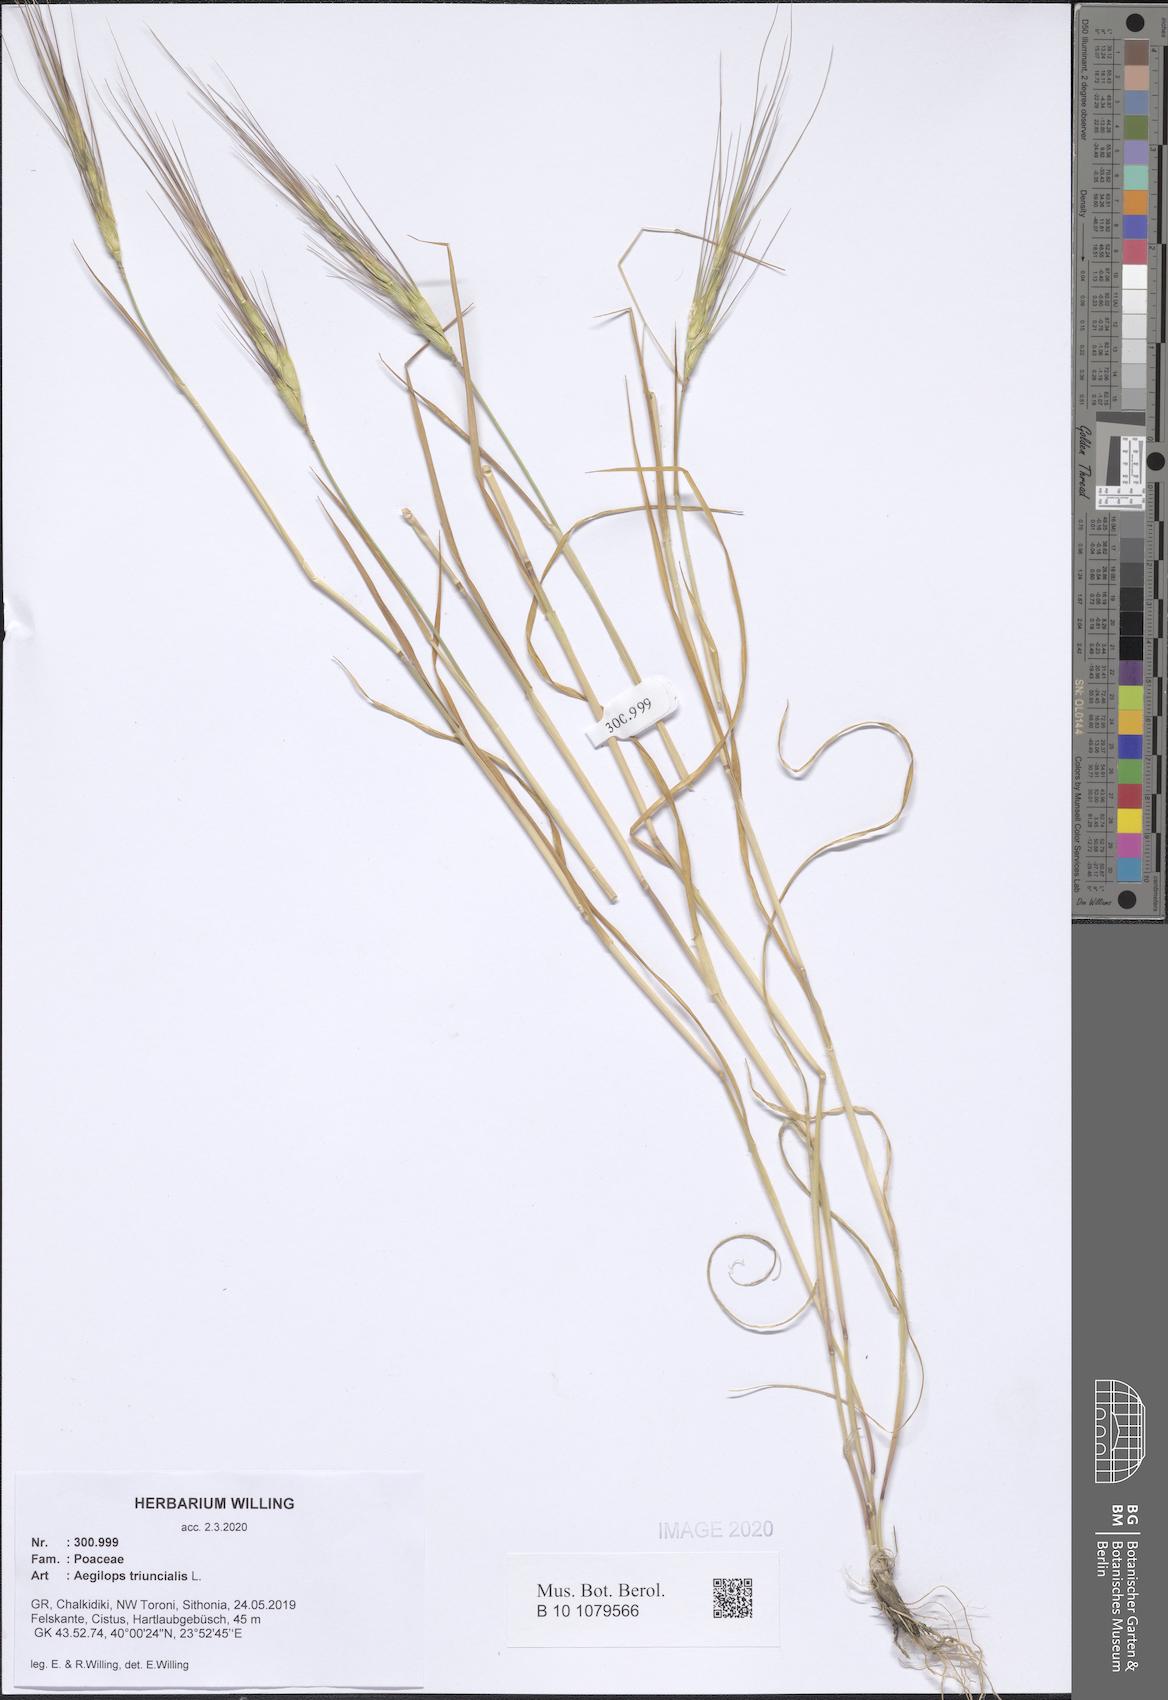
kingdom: Plantae
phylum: Tracheophyta
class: Liliopsida
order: Poales
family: Poaceae
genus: Aegilops
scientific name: Aegilops triuncialis
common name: Barb goat grass
